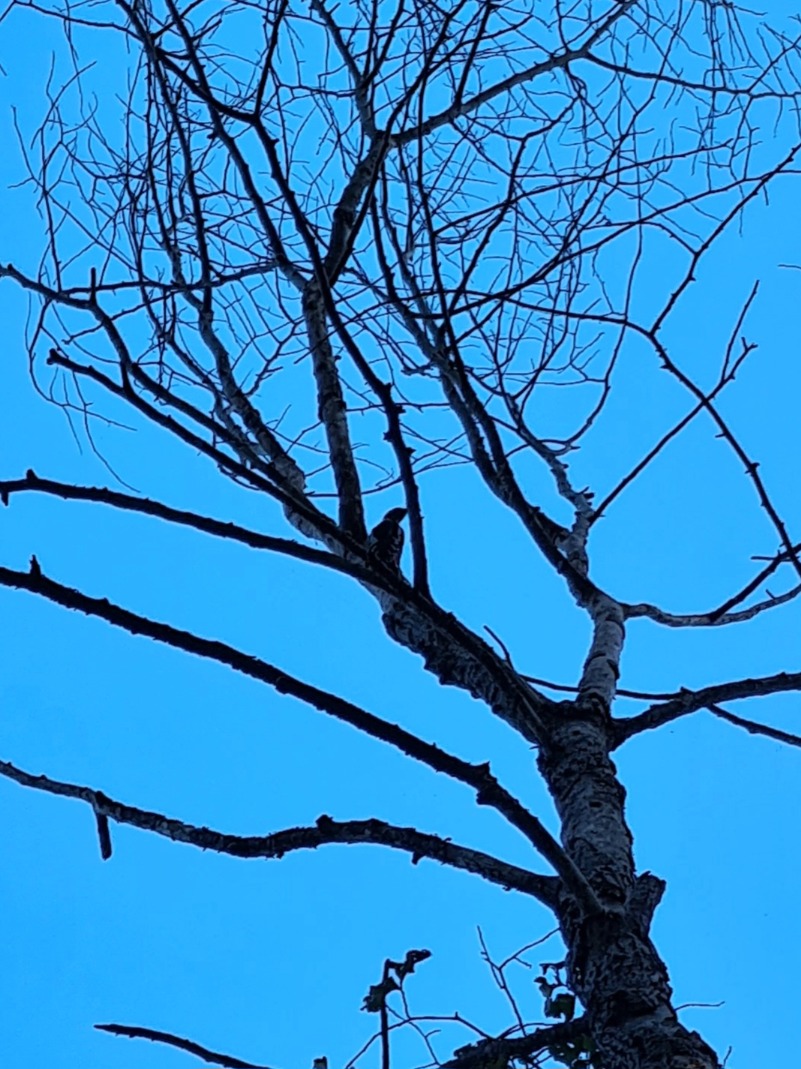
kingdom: Animalia
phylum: Chordata
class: Aves
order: Piciformes
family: Picidae
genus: Dendrocopos
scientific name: Dendrocopos major
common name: Stor flagspætte
